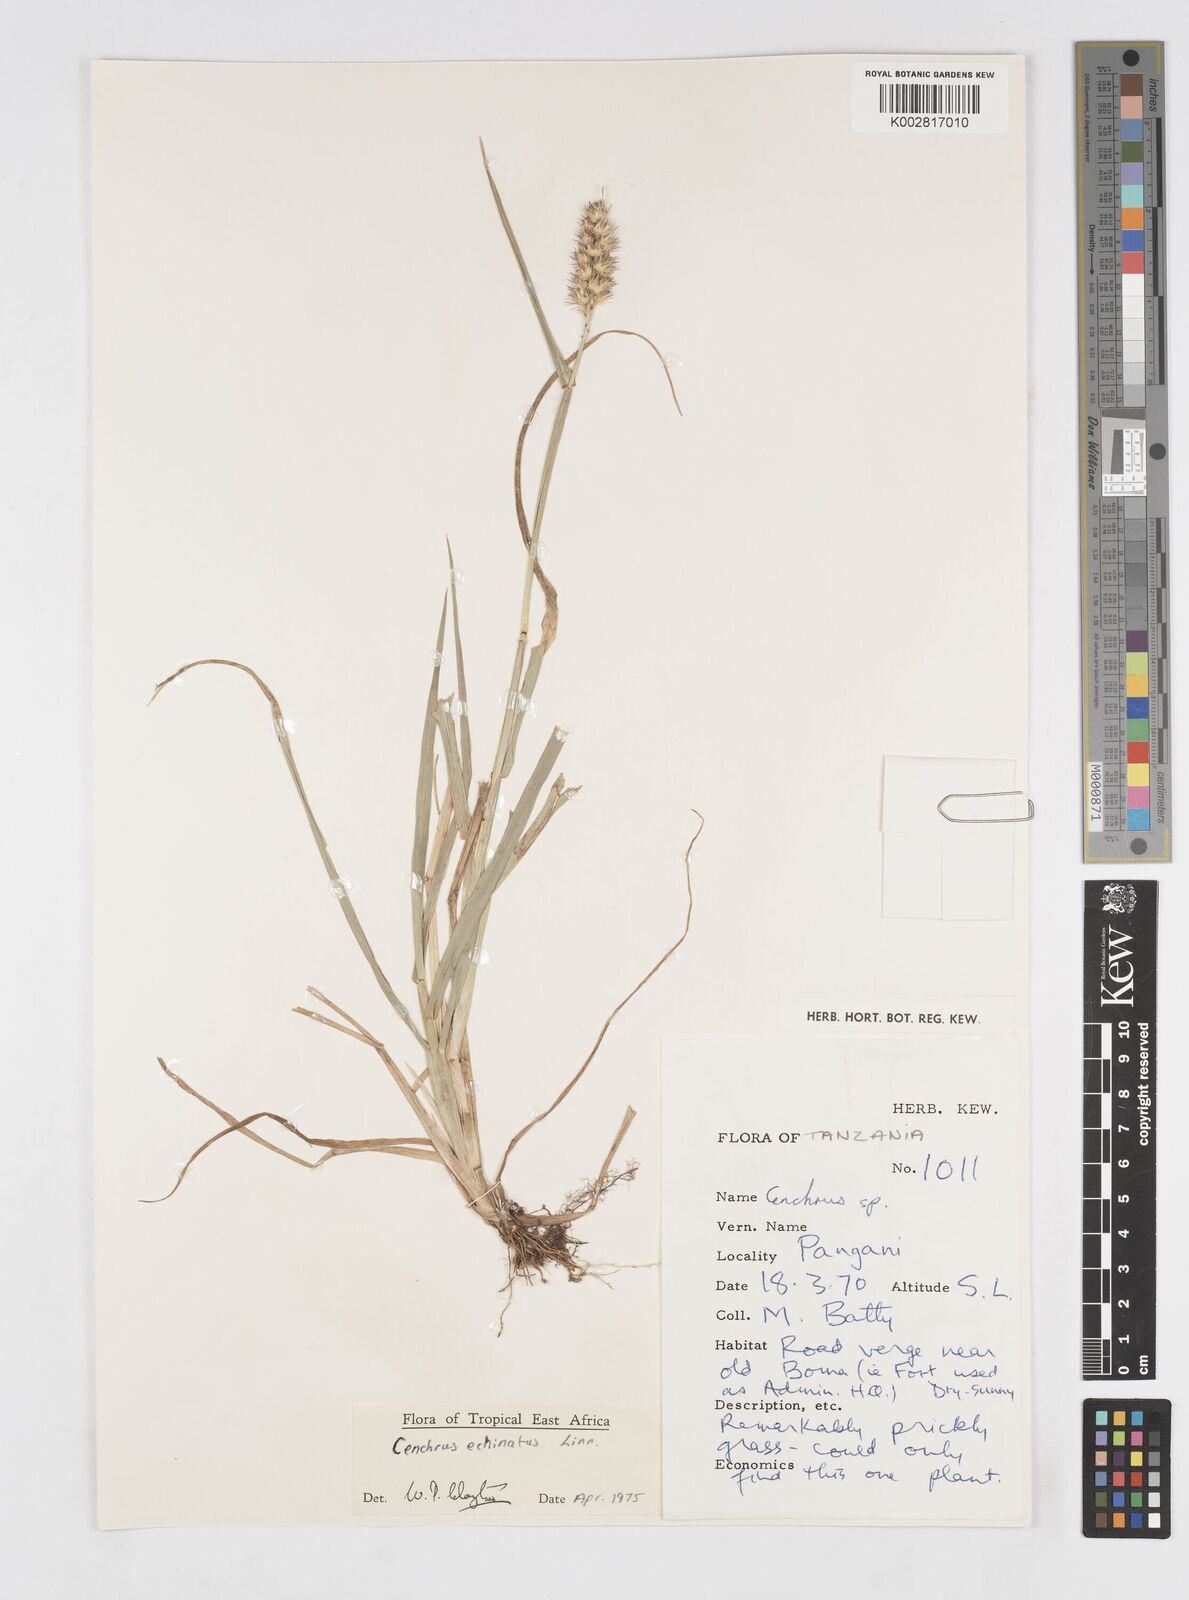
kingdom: Plantae
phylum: Tracheophyta
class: Liliopsida
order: Poales
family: Poaceae
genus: Cenchrus
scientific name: Cenchrus echinatus
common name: Southern sandbur
